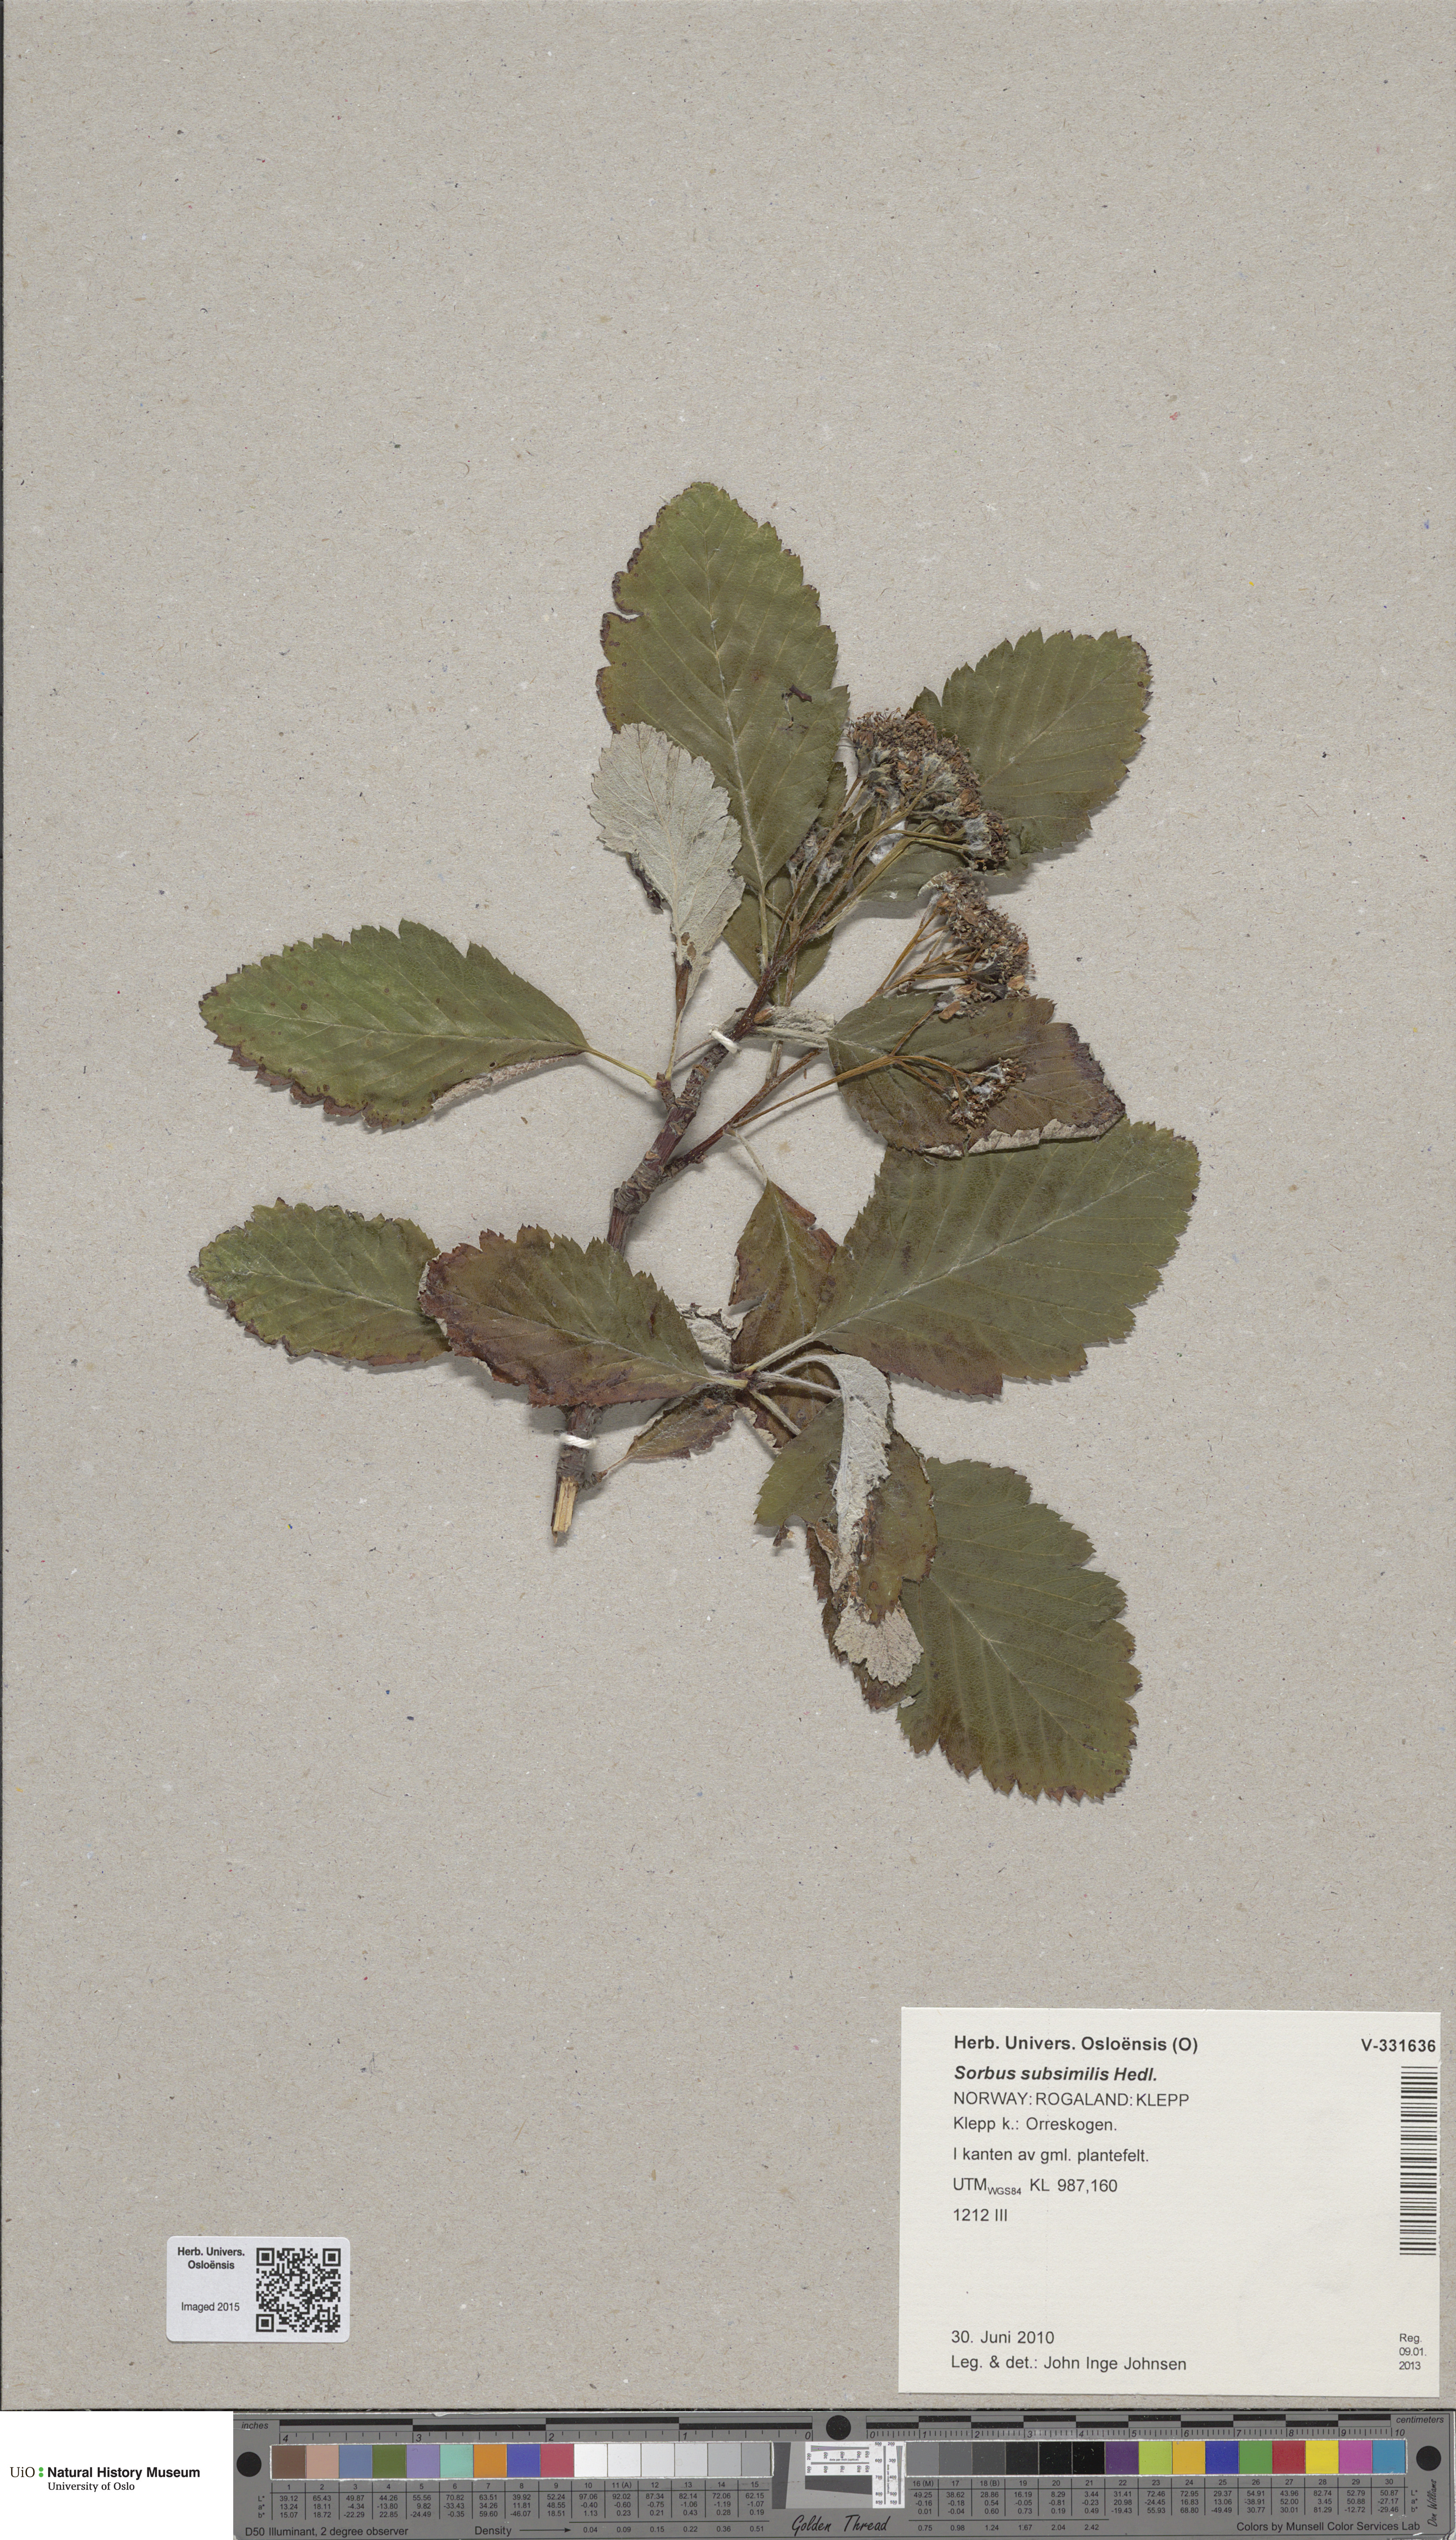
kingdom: Plantae
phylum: Tracheophyta
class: Magnoliopsida
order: Rosales
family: Rosaceae
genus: Hedlundia
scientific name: Hedlundia subsimilis
